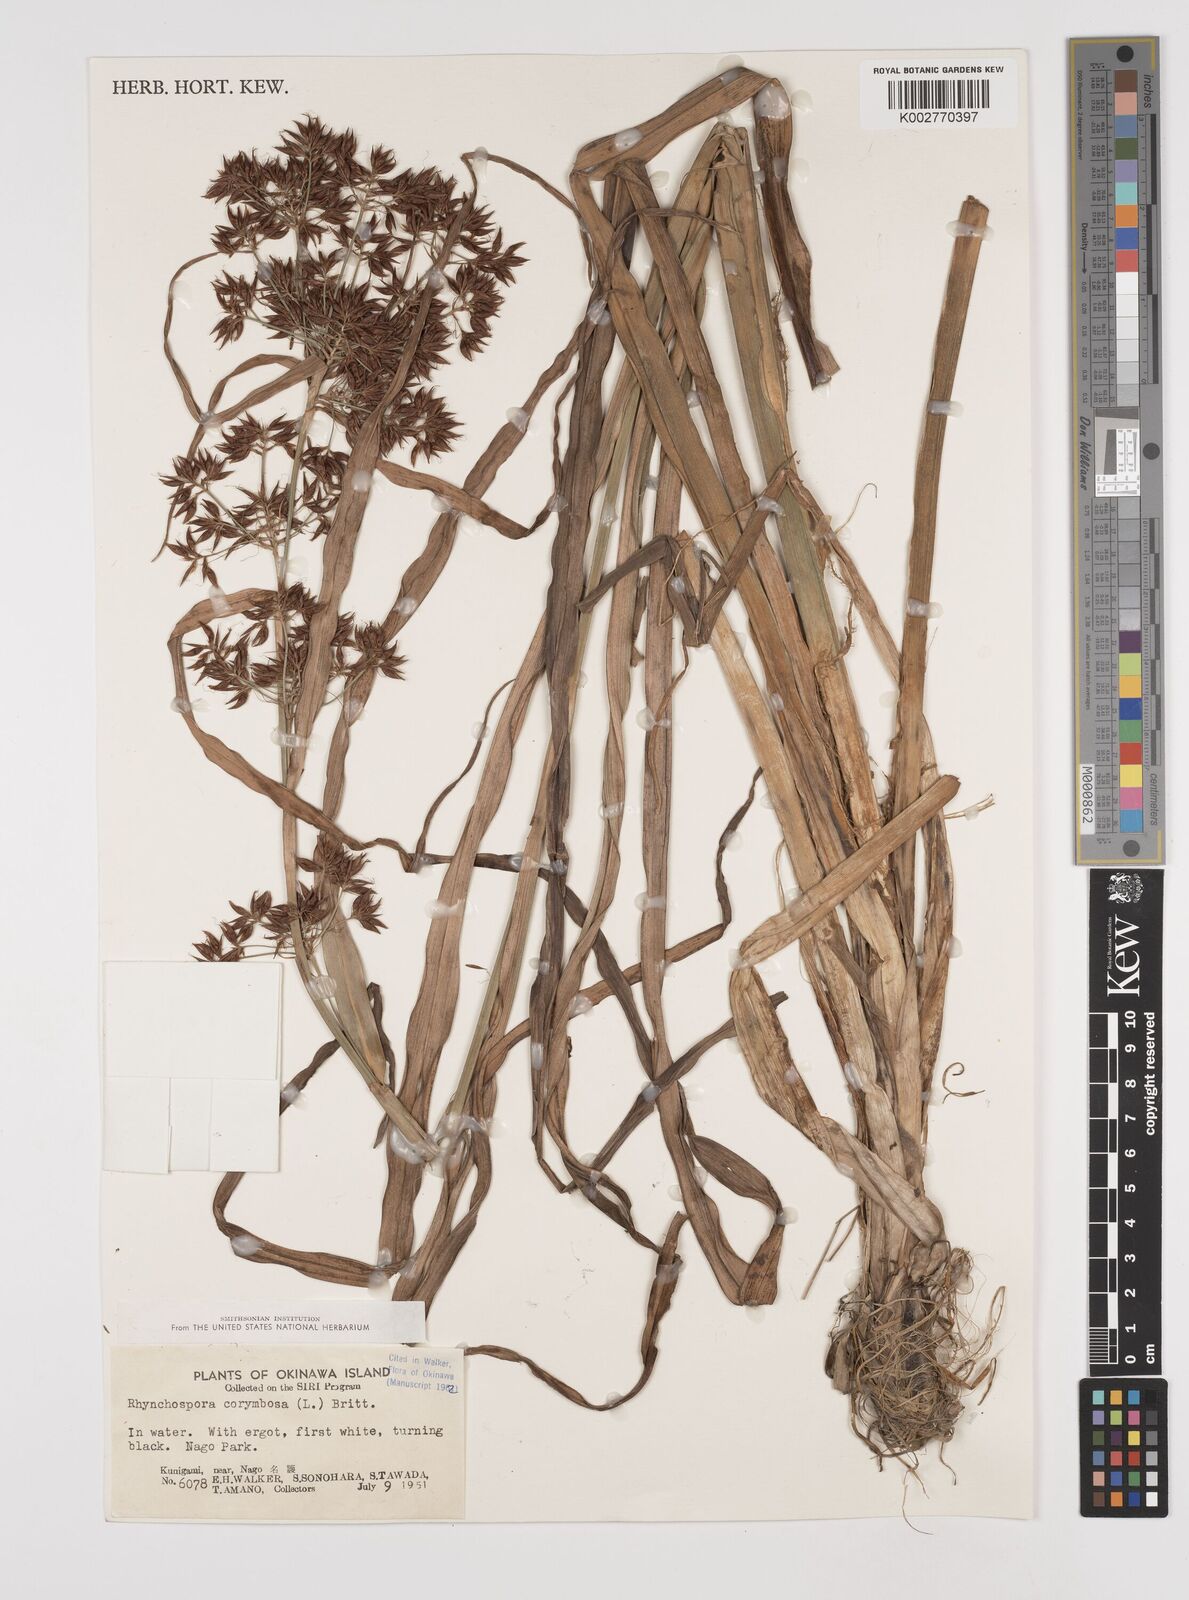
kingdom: Plantae
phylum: Tracheophyta
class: Liliopsida
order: Poales
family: Cyperaceae
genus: Rhynchospora
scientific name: Rhynchospora corymbosa
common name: Golden beak sedge
